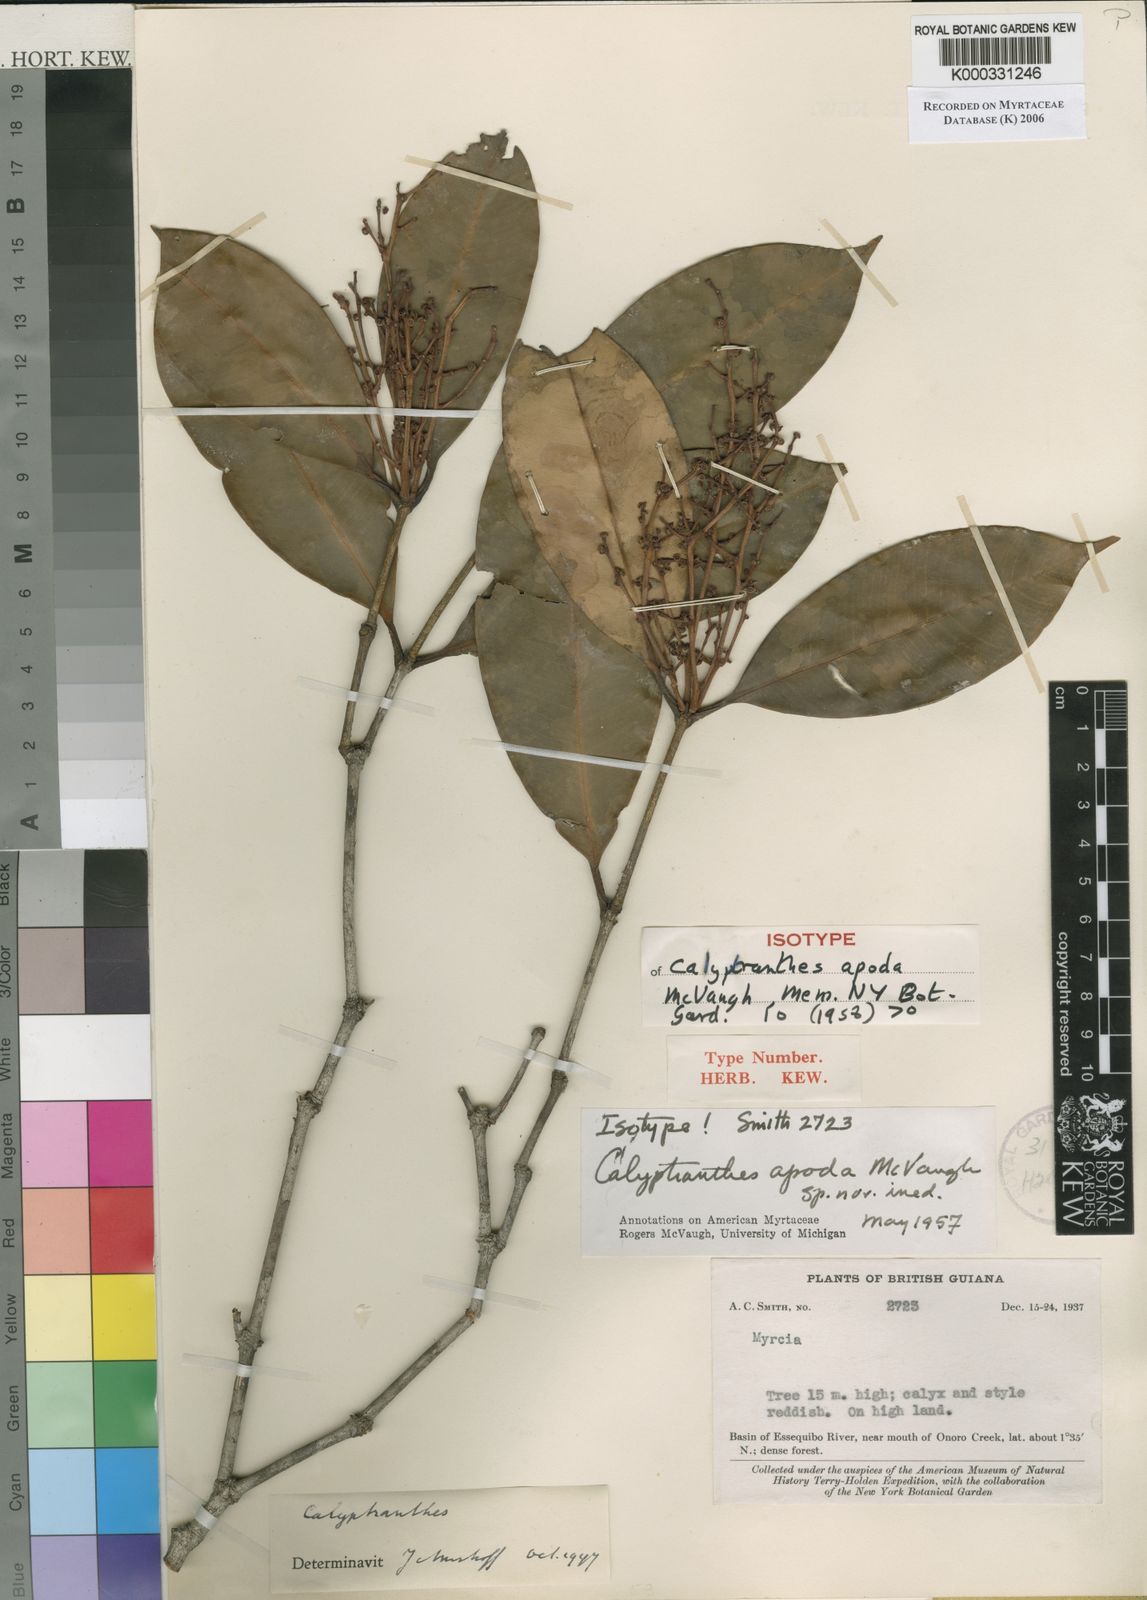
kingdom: Plantae
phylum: Tracheophyta
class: Magnoliopsida
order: Myrtales
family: Myrtaceae
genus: Myrcia
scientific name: Myrcia vexata
